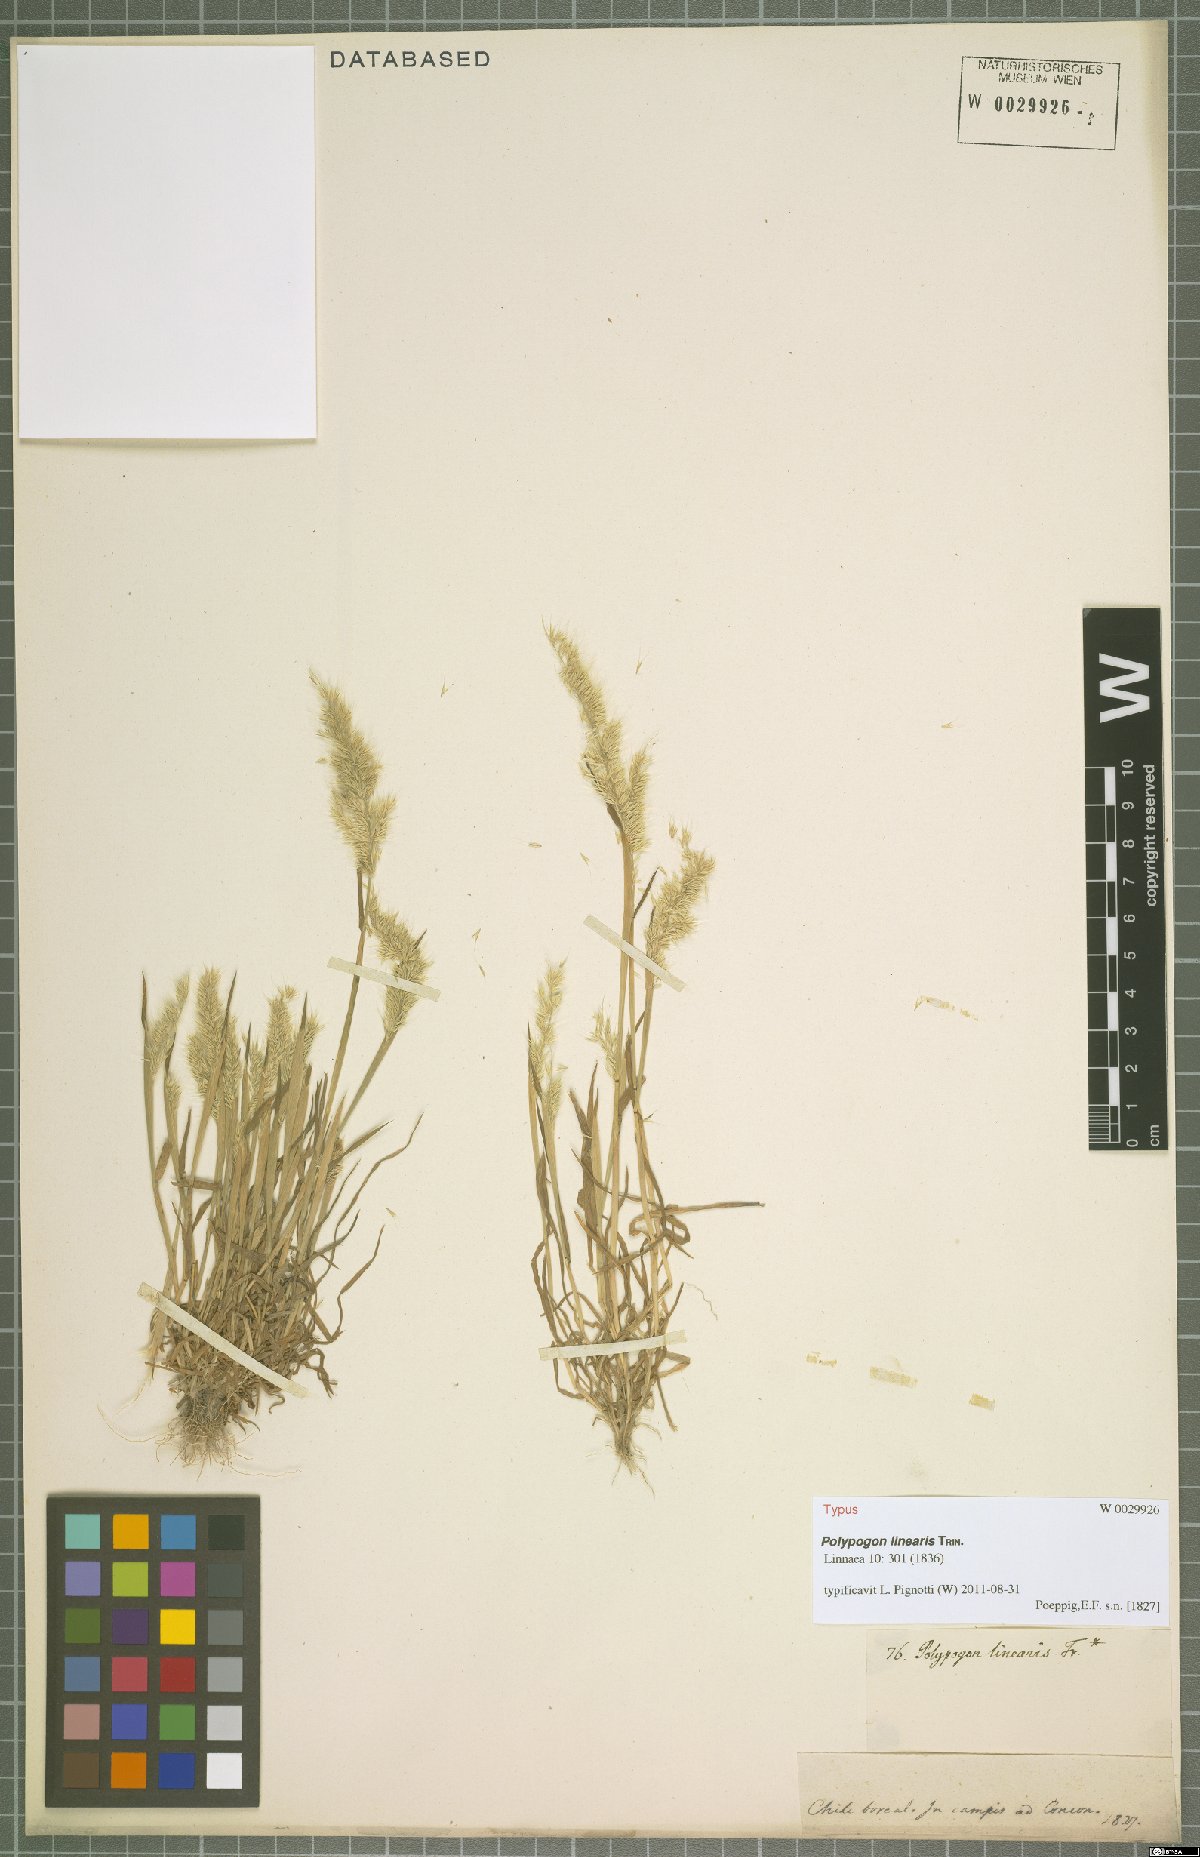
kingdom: Plantae
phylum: Tracheophyta
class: Liliopsida
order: Poales
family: Poaceae
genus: Polypogon
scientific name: Polypogon linearis
